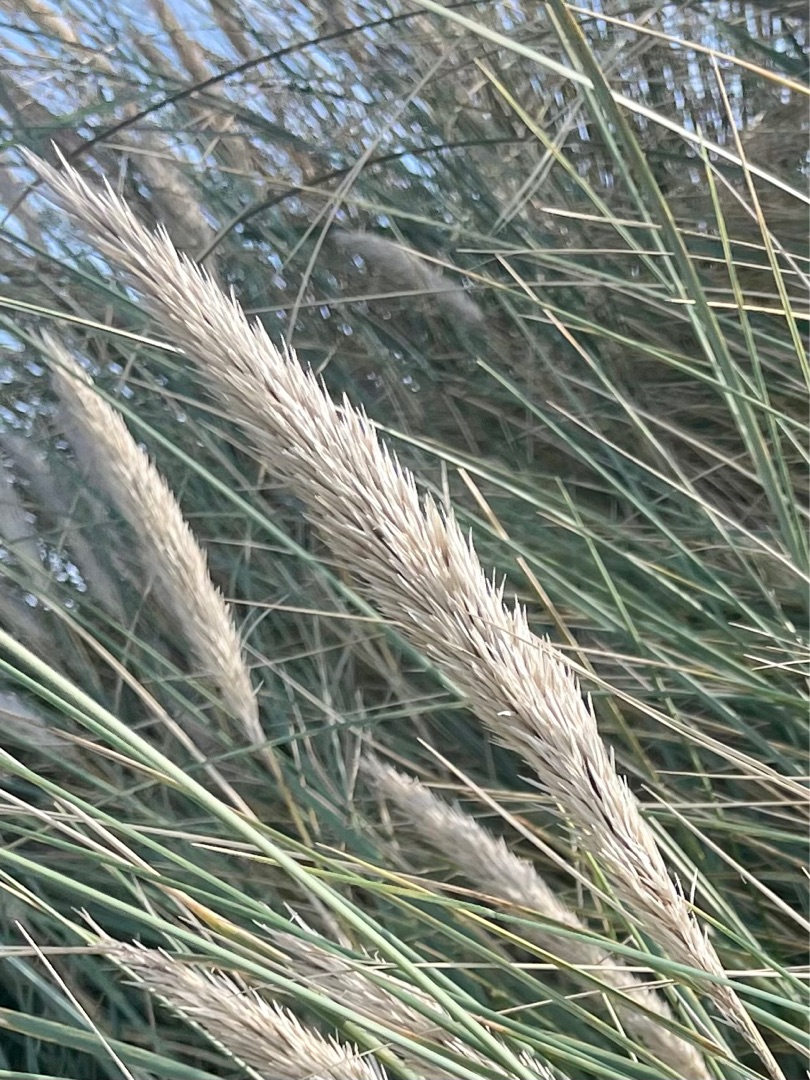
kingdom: Plantae
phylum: Tracheophyta
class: Liliopsida
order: Poales
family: Poaceae
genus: Calamagrostis
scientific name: Calamagrostis arenaria
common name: Sand-hjælme
